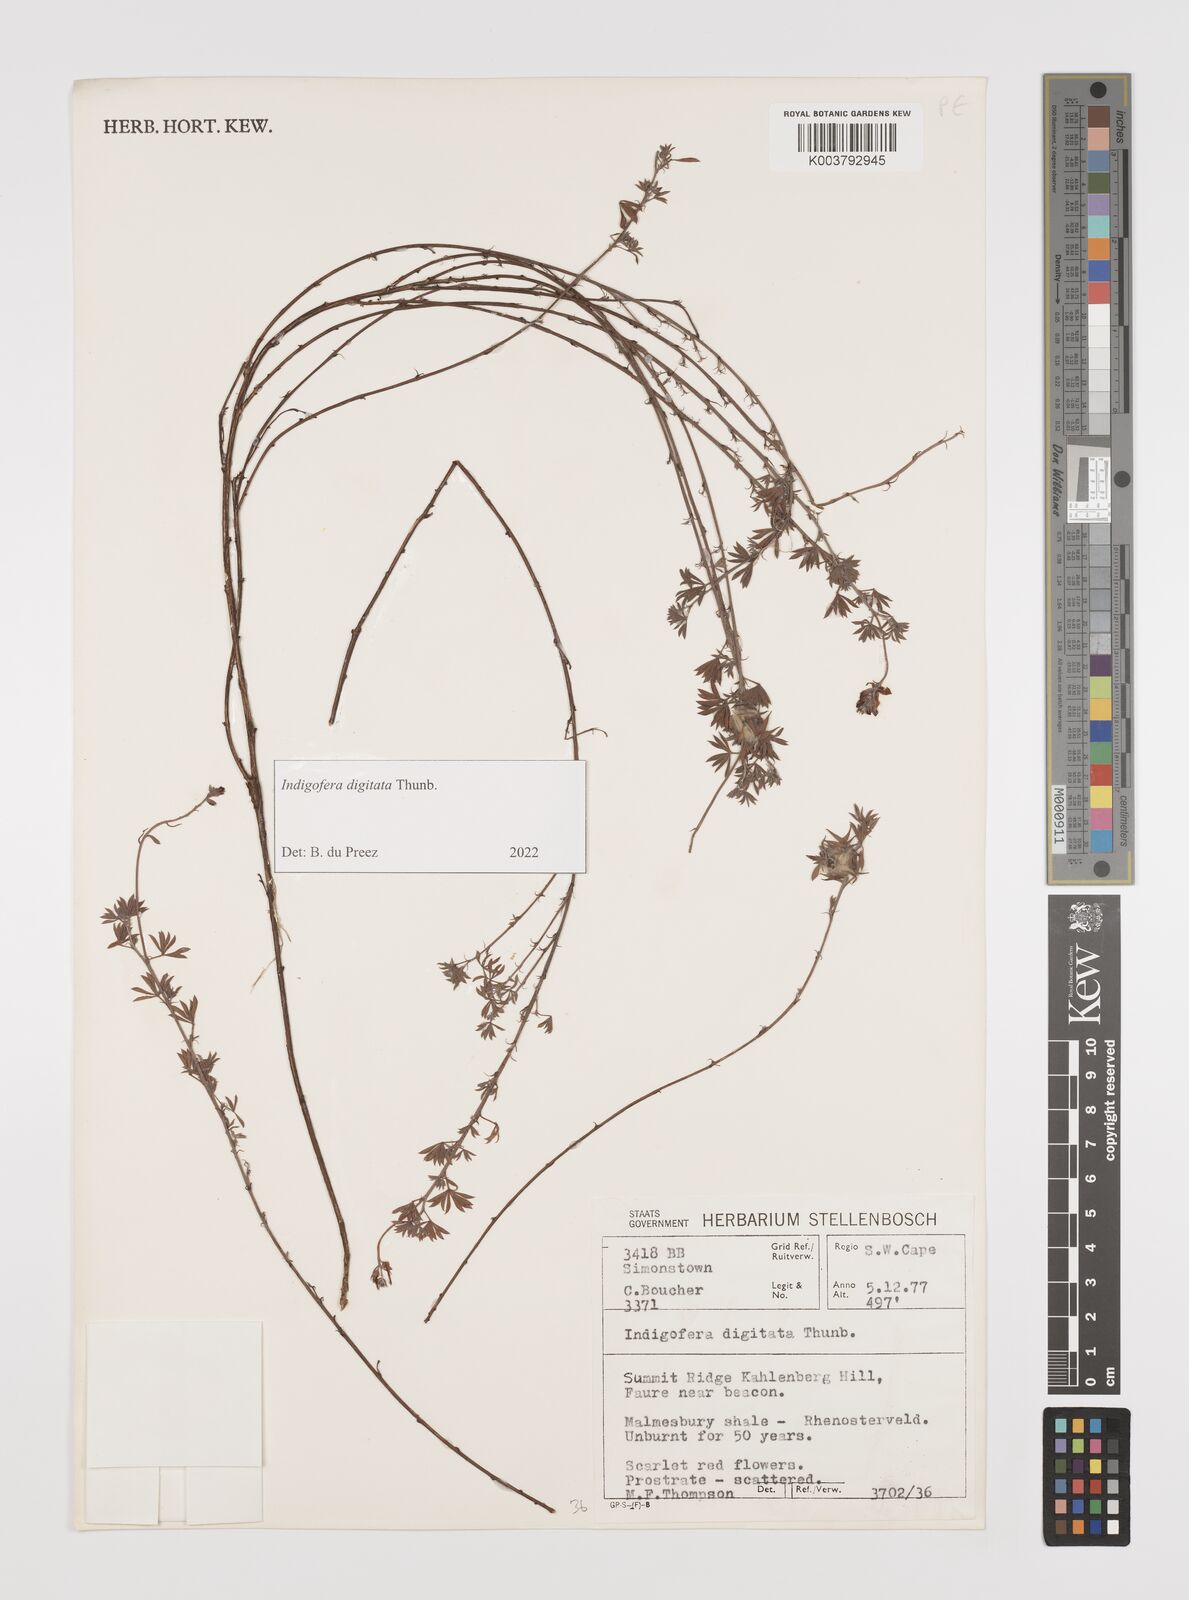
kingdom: Plantae
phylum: Tracheophyta
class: Magnoliopsida
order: Fabales
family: Fabaceae
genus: Indigofera
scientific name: Indigofera
